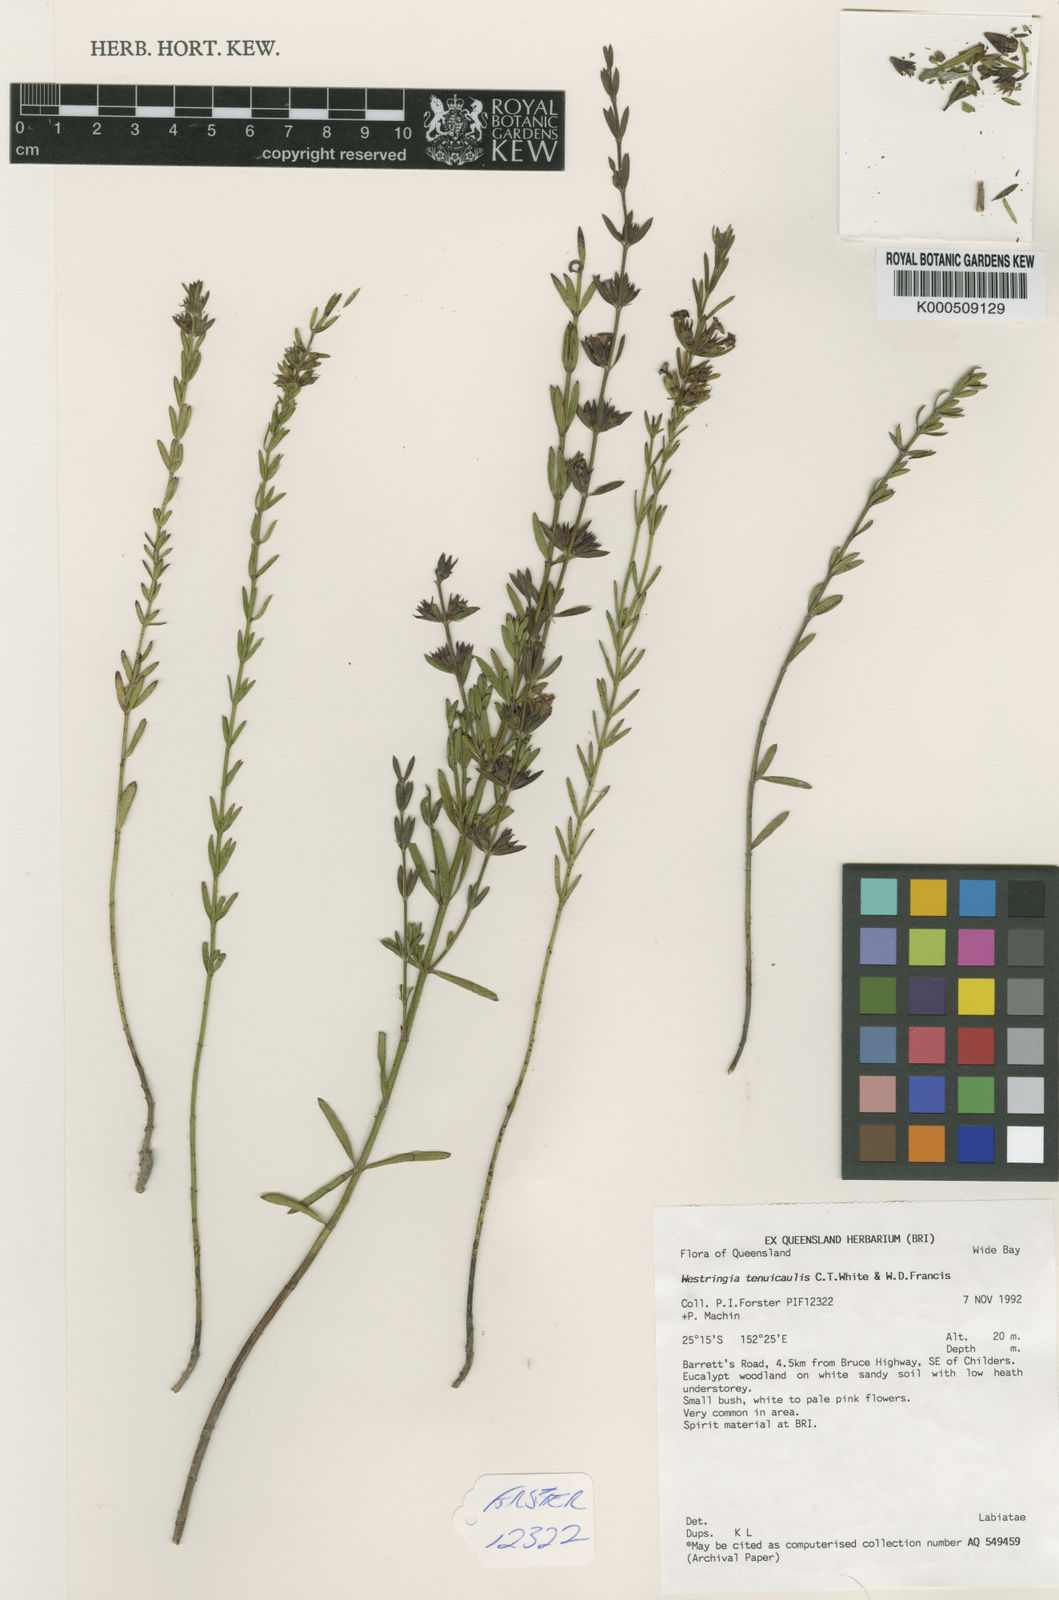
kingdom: Plantae
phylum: Tracheophyta
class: Magnoliopsida
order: Lamiales
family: Lamiaceae
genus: Westringia
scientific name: Westringia tenuicaulis
